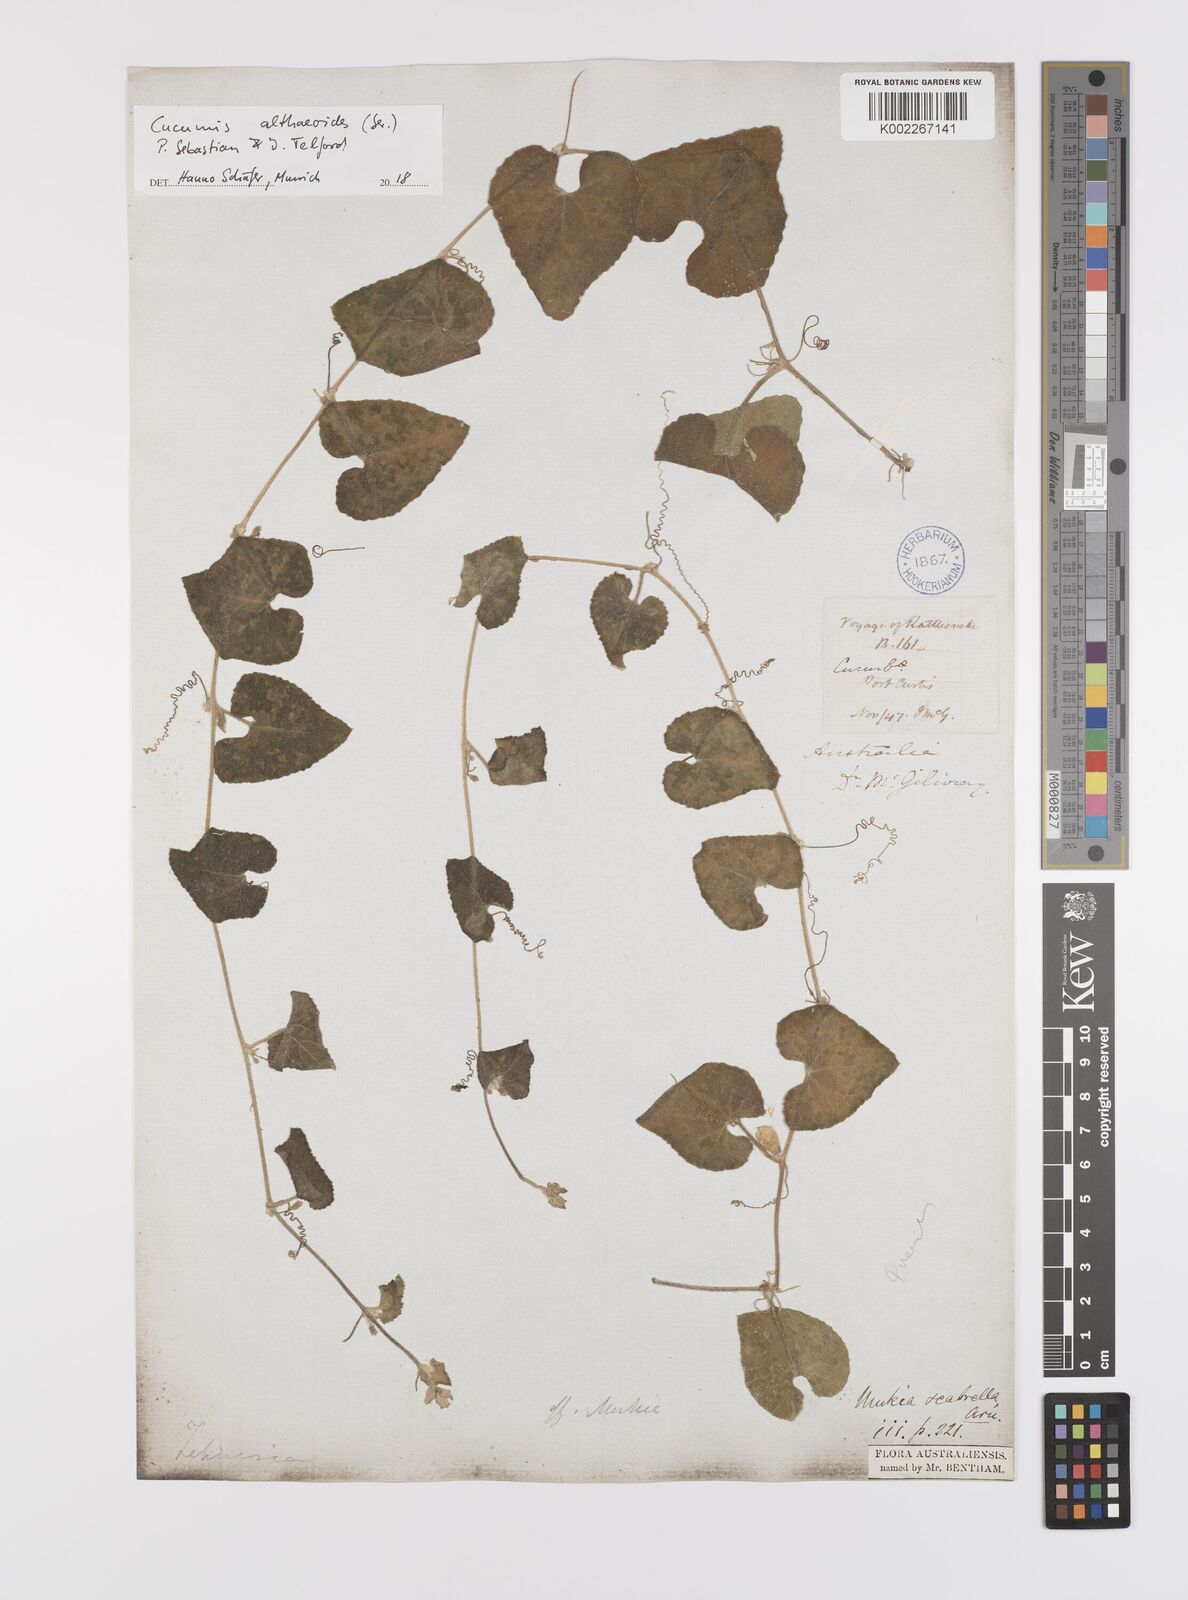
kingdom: Plantae
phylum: Tracheophyta
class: Magnoliopsida
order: Cucurbitales
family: Cucurbitaceae
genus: Cucumis
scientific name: Cucumis althaeoides
